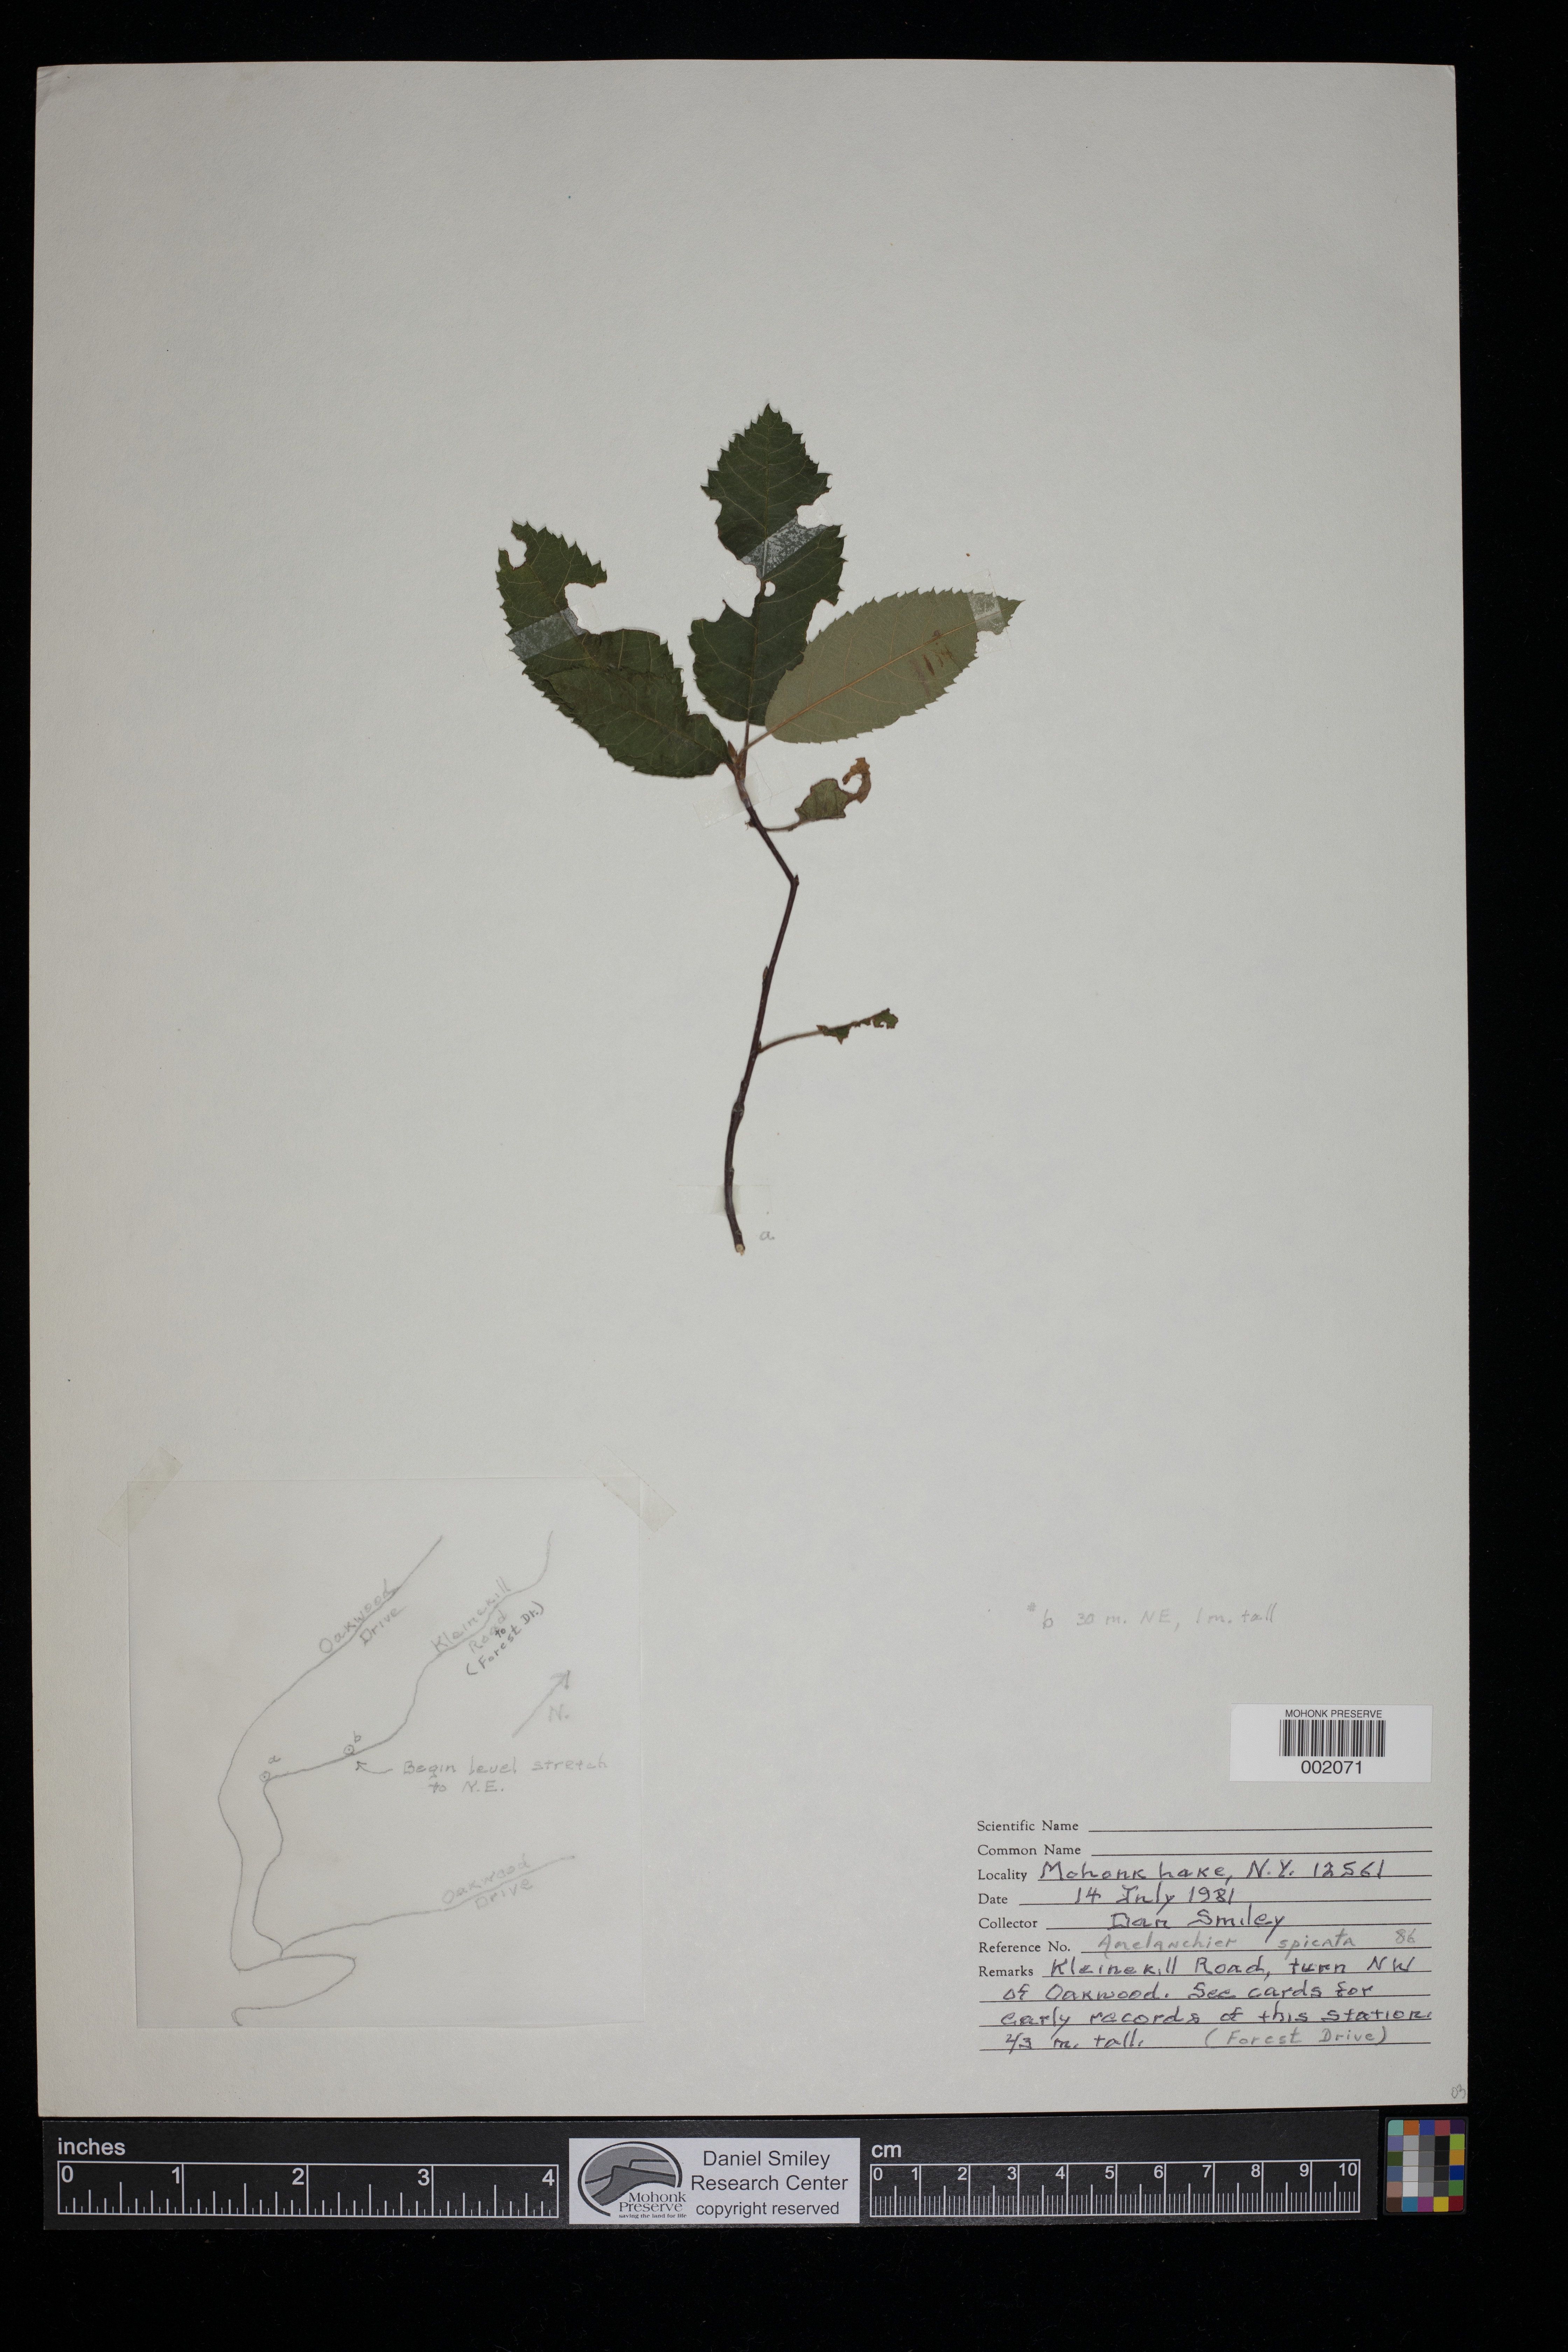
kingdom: Plantae
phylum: Tracheophyta
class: Magnoliopsida
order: Rosales
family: Rosaceae
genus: Amelanchier
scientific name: Amelanchier stolonifera
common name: Running serviceberry
